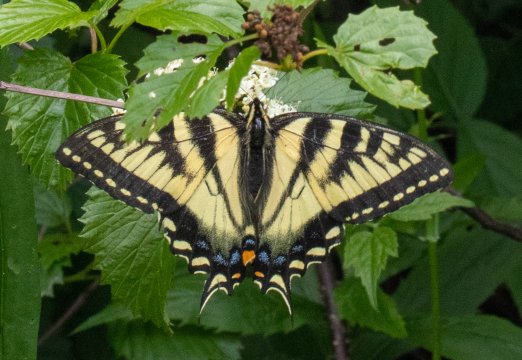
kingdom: Animalia
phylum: Arthropoda
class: Insecta
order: Lepidoptera
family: Papilionidae
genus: Pterourus
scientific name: Pterourus
